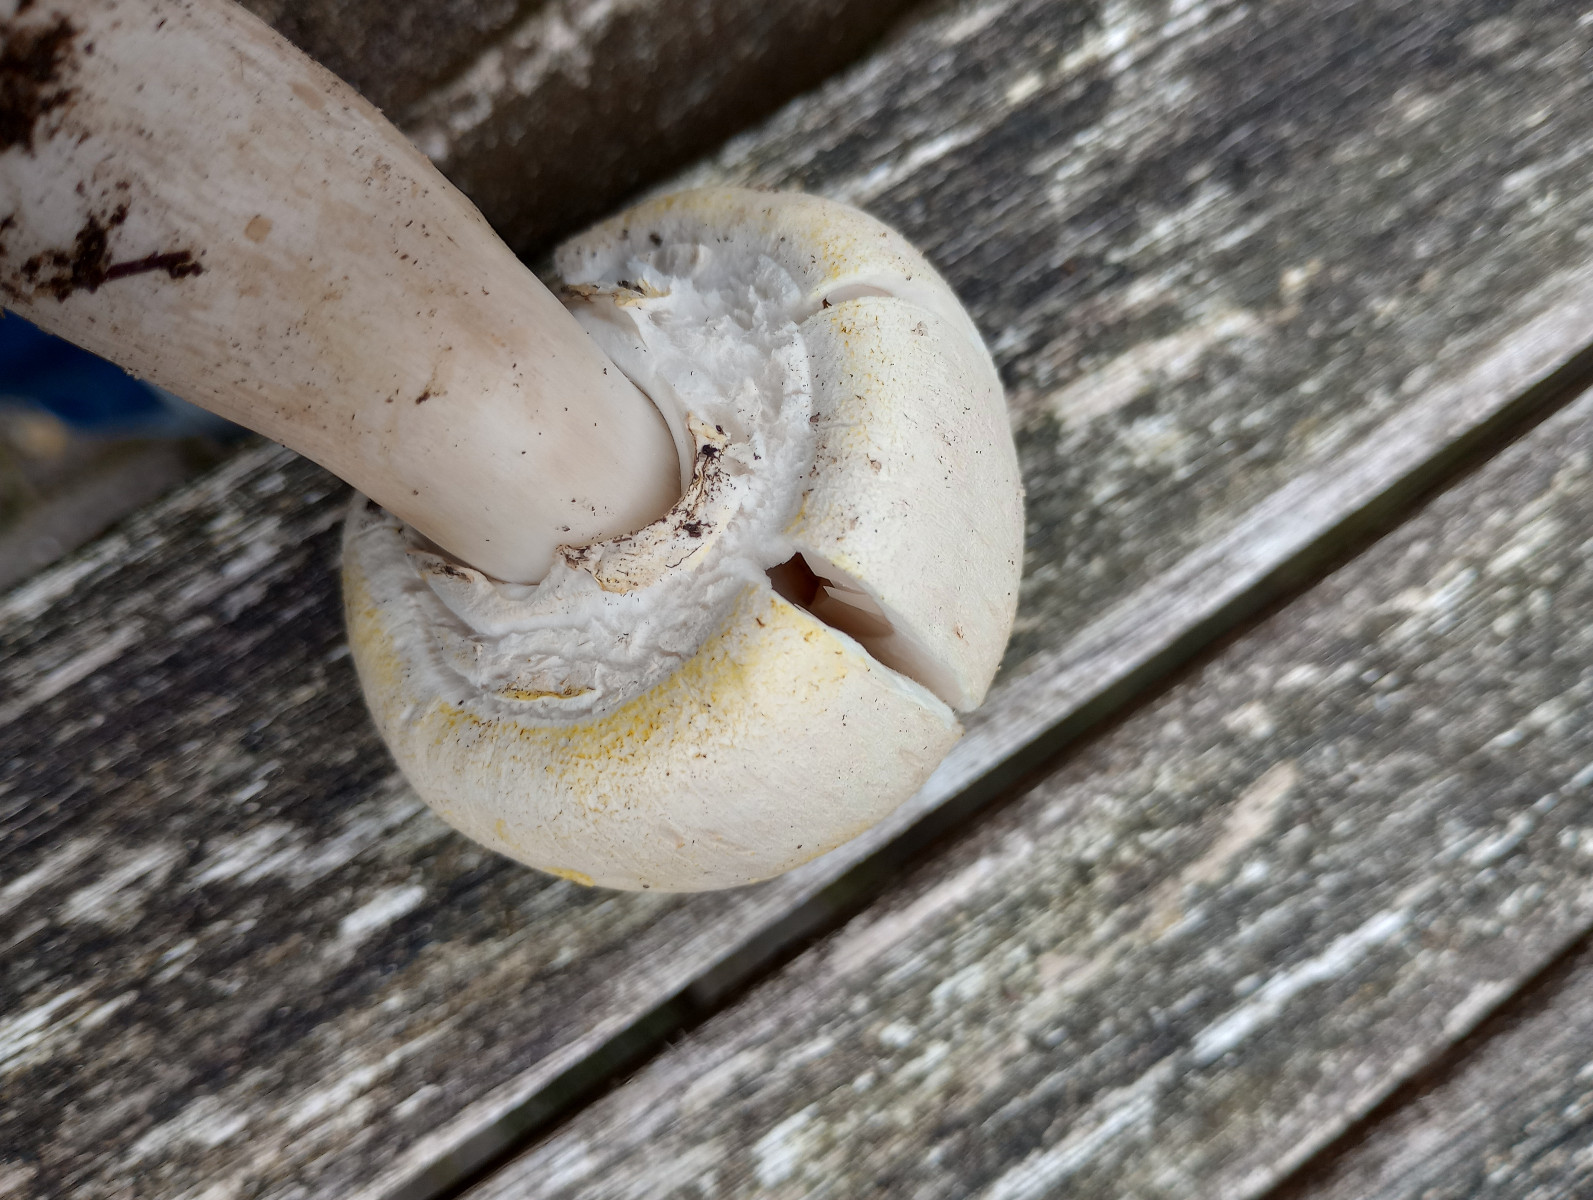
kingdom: Fungi
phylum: Basidiomycota
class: Agaricomycetes
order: Agaricales
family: Agaricaceae
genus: Agaricus
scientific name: Agaricus
